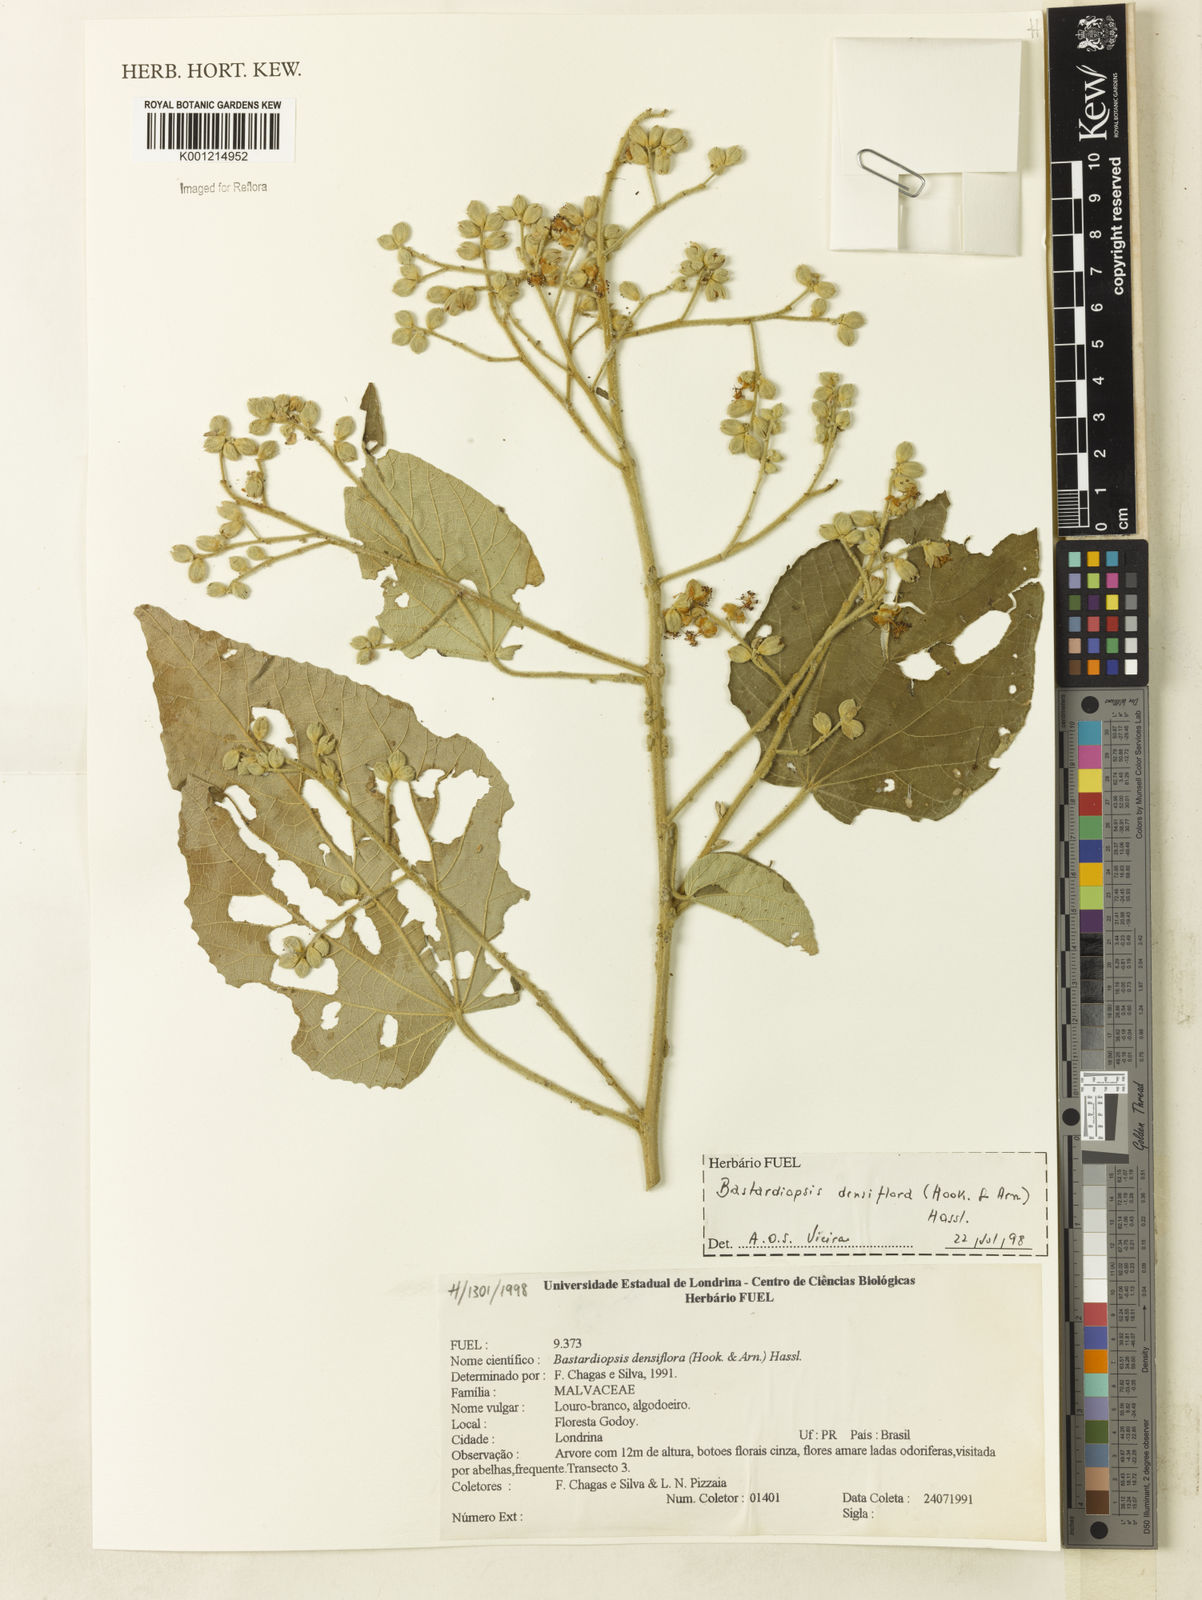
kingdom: Plantae
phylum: Tracheophyta
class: Magnoliopsida
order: Malvales
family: Malvaceae
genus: Bastardiopsis
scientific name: Bastardiopsis densiflora
